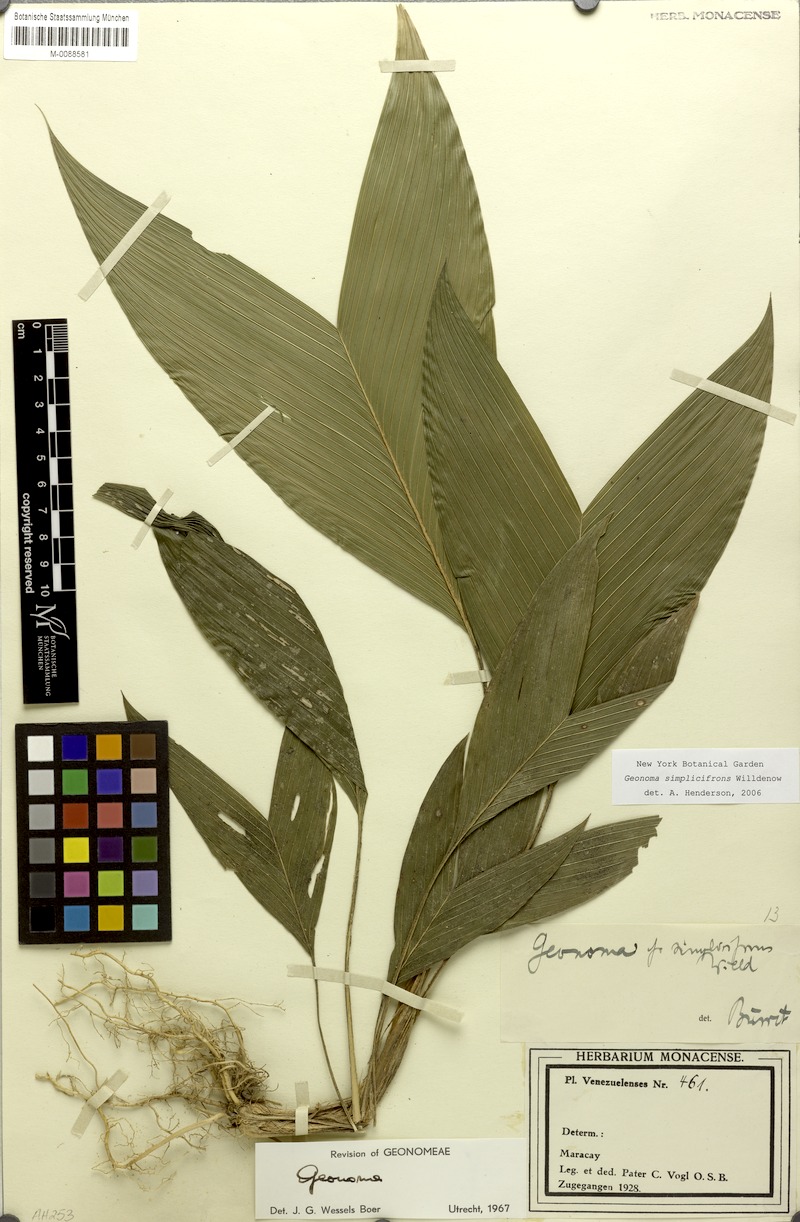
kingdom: Plantae
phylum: Tracheophyta
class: Liliopsida
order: Arecales
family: Arecaceae
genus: Geonoma
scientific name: Geonoma simplicifrons
